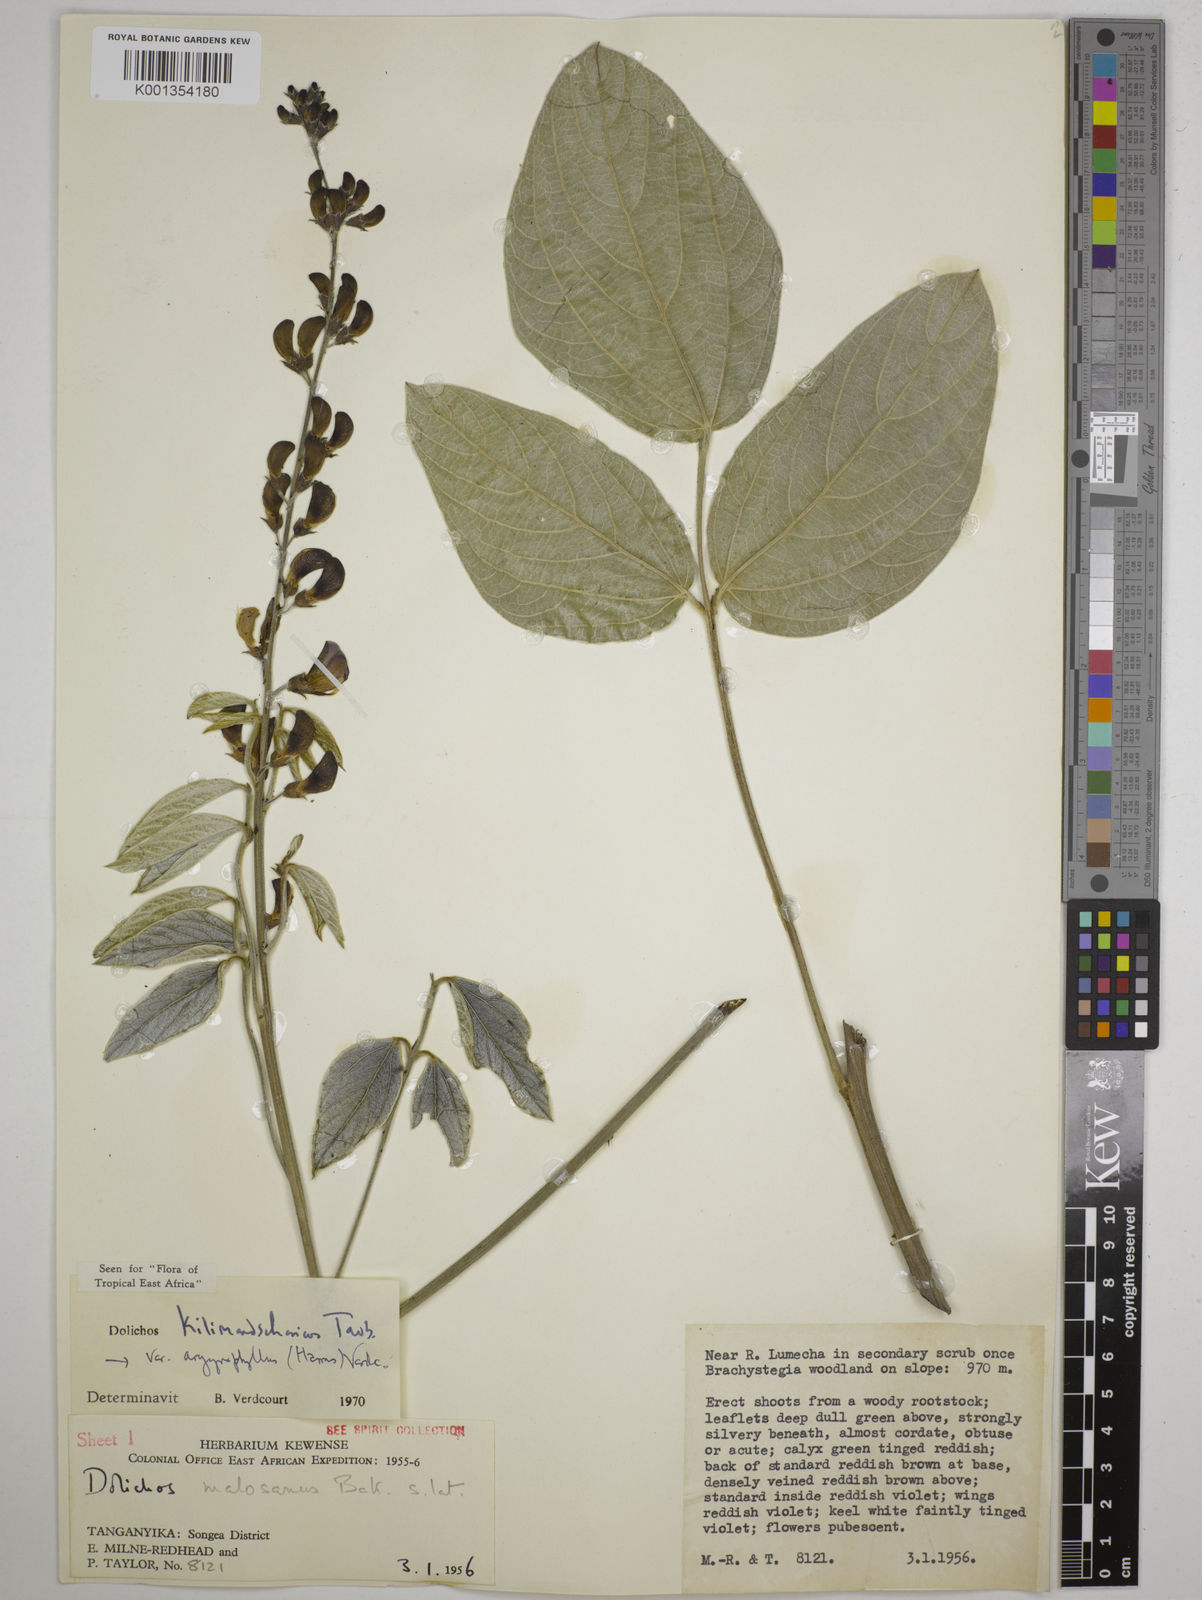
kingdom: Plantae
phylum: Tracheophyta
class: Magnoliopsida
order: Fabales
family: Fabaceae
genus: Dolichos
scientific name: Dolichos kilimandscharicus
